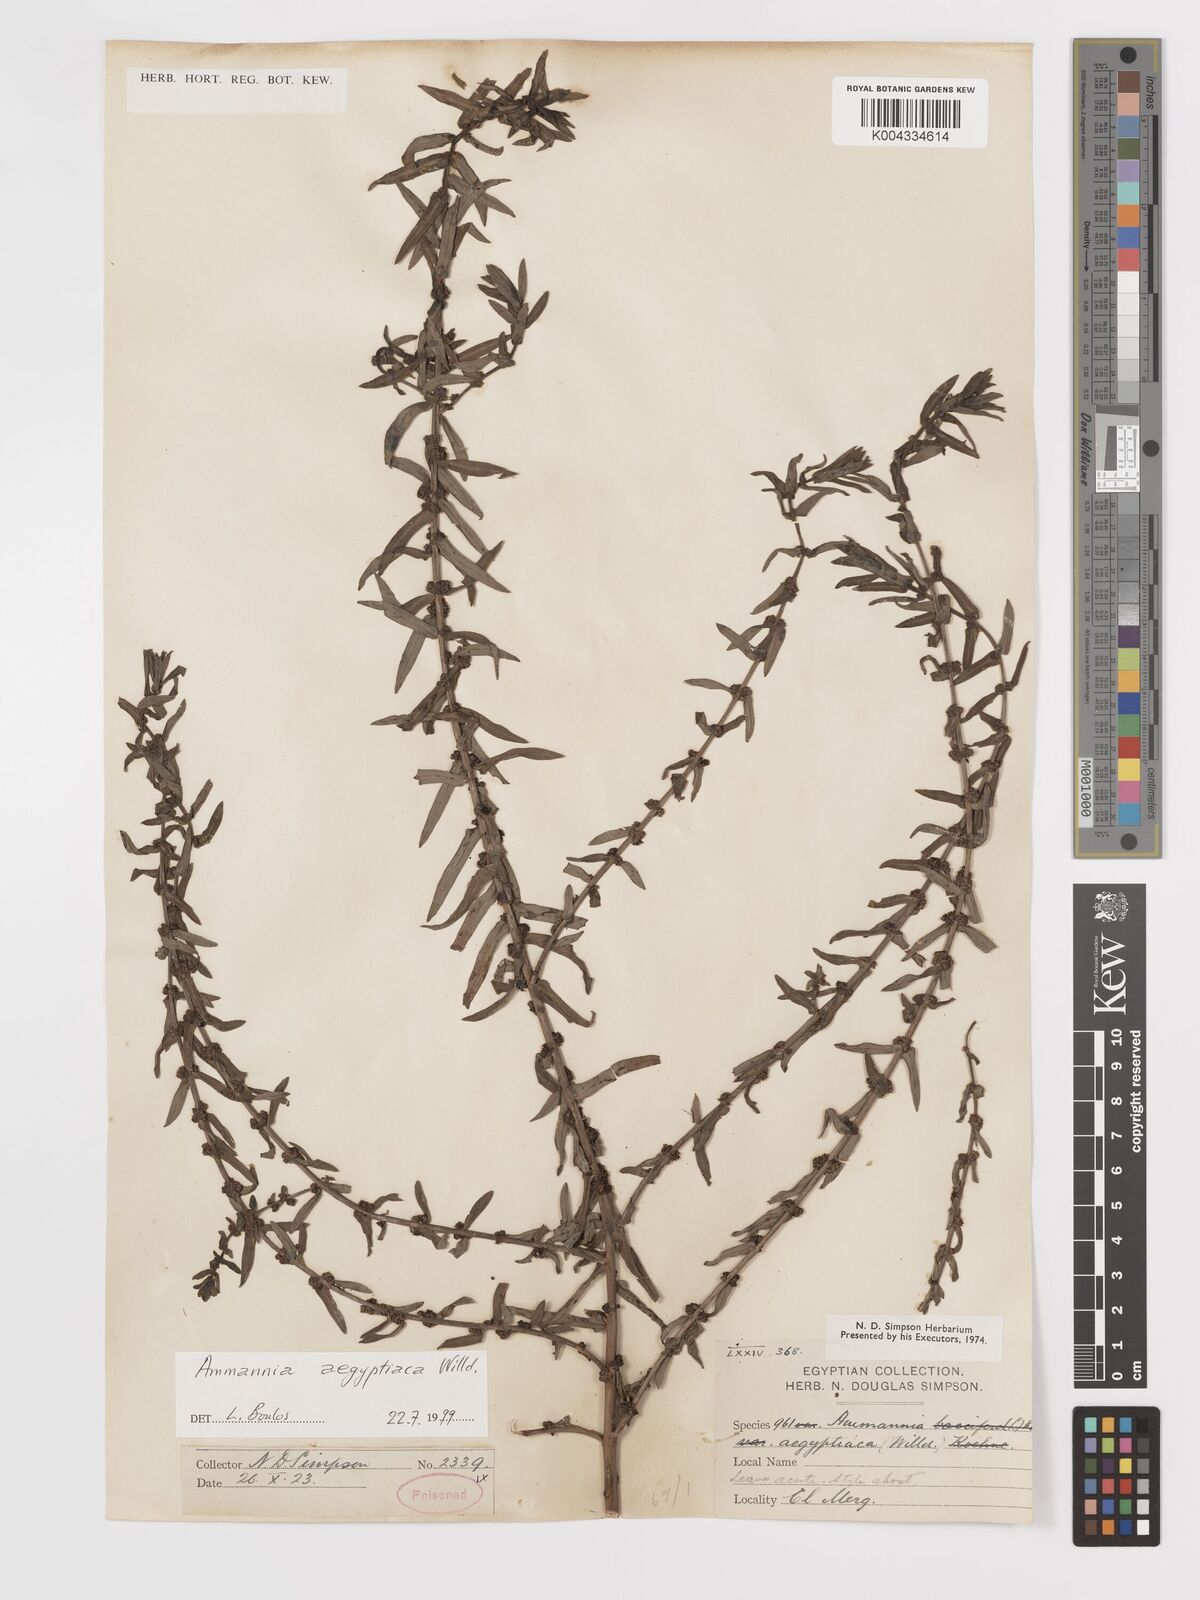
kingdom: Plantae
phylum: Tracheophyta
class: Magnoliopsida
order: Myrtales
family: Lythraceae
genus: Ammannia
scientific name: Ammannia
